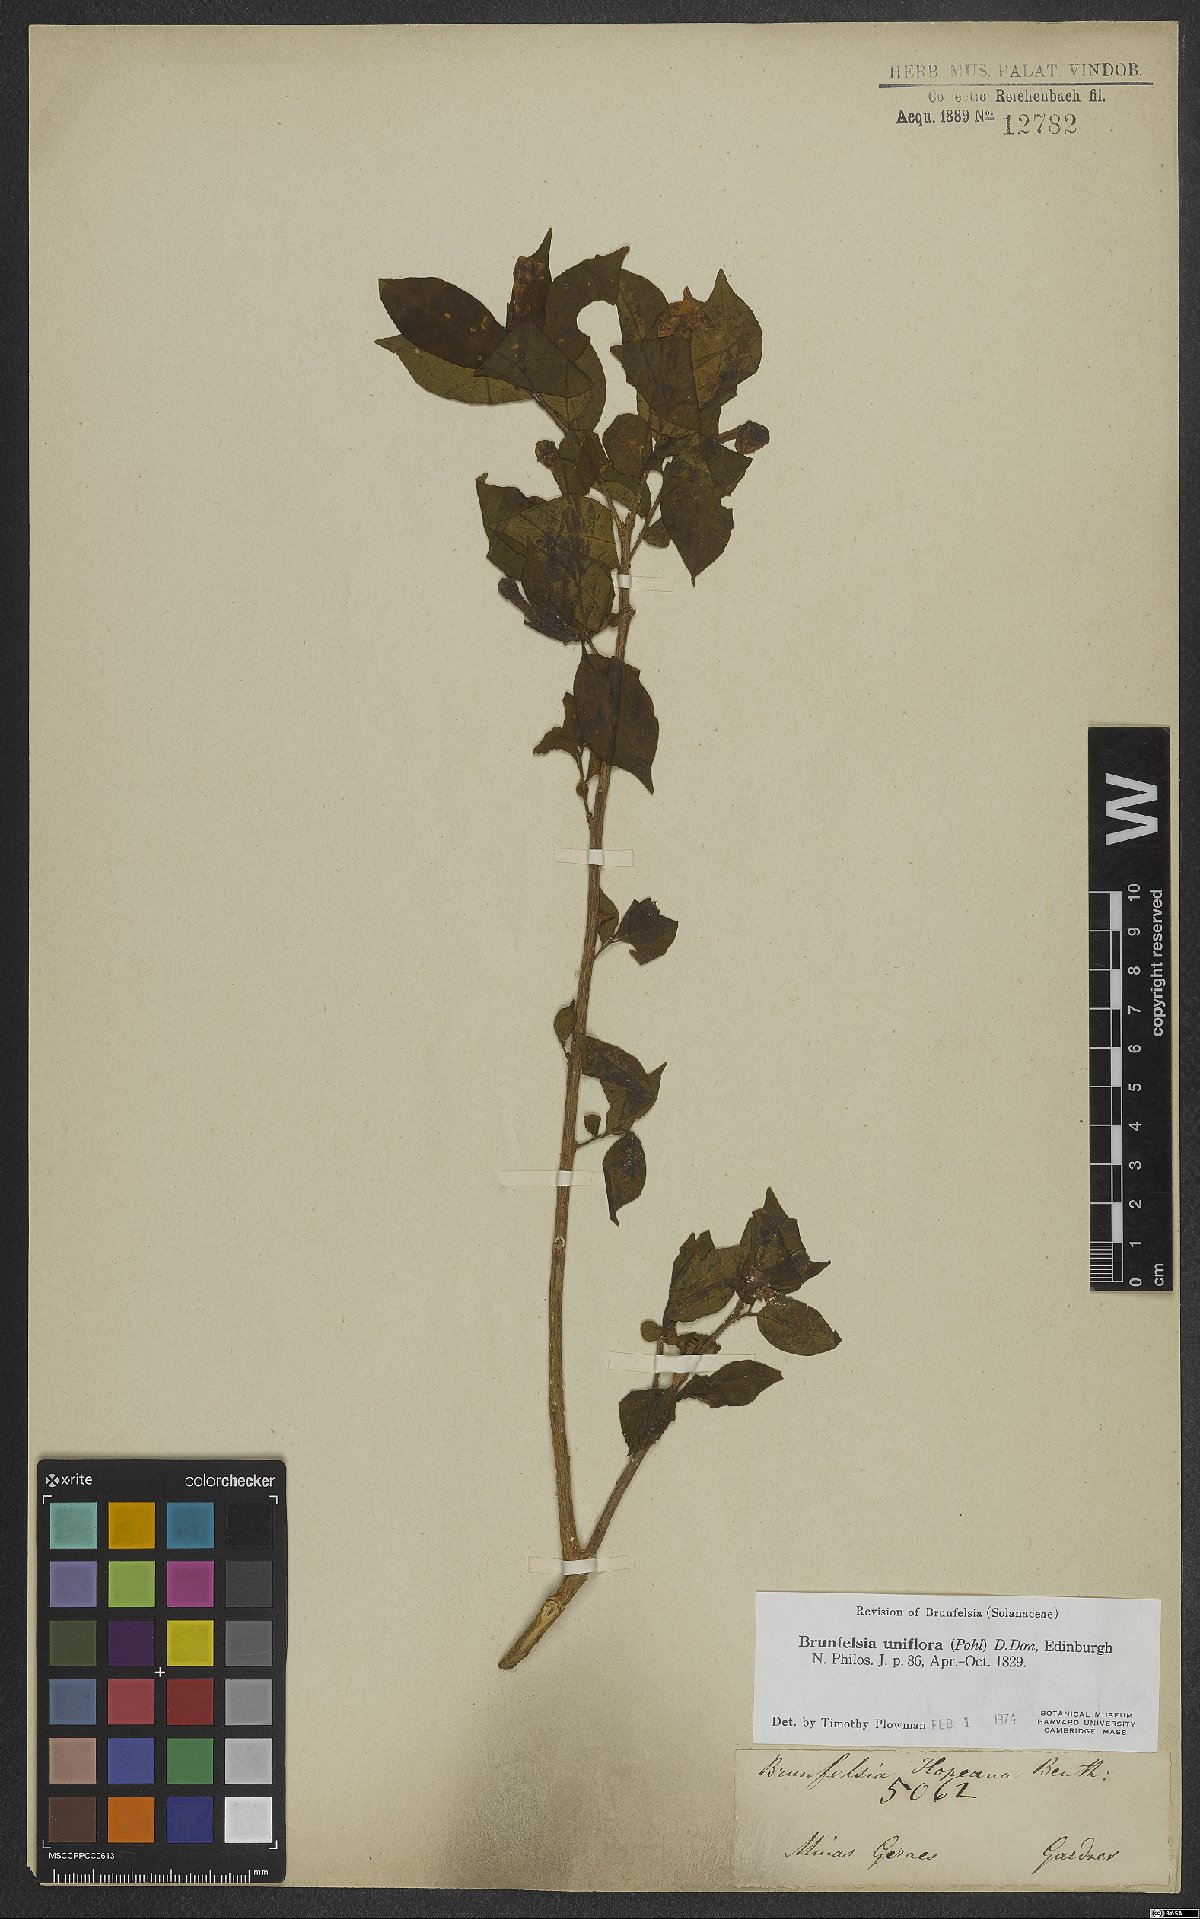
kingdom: Plantae
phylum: Tracheophyta
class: Magnoliopsida
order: Solanales
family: Solanaceae
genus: Brunfelsia
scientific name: Brunfelsia uniflora
